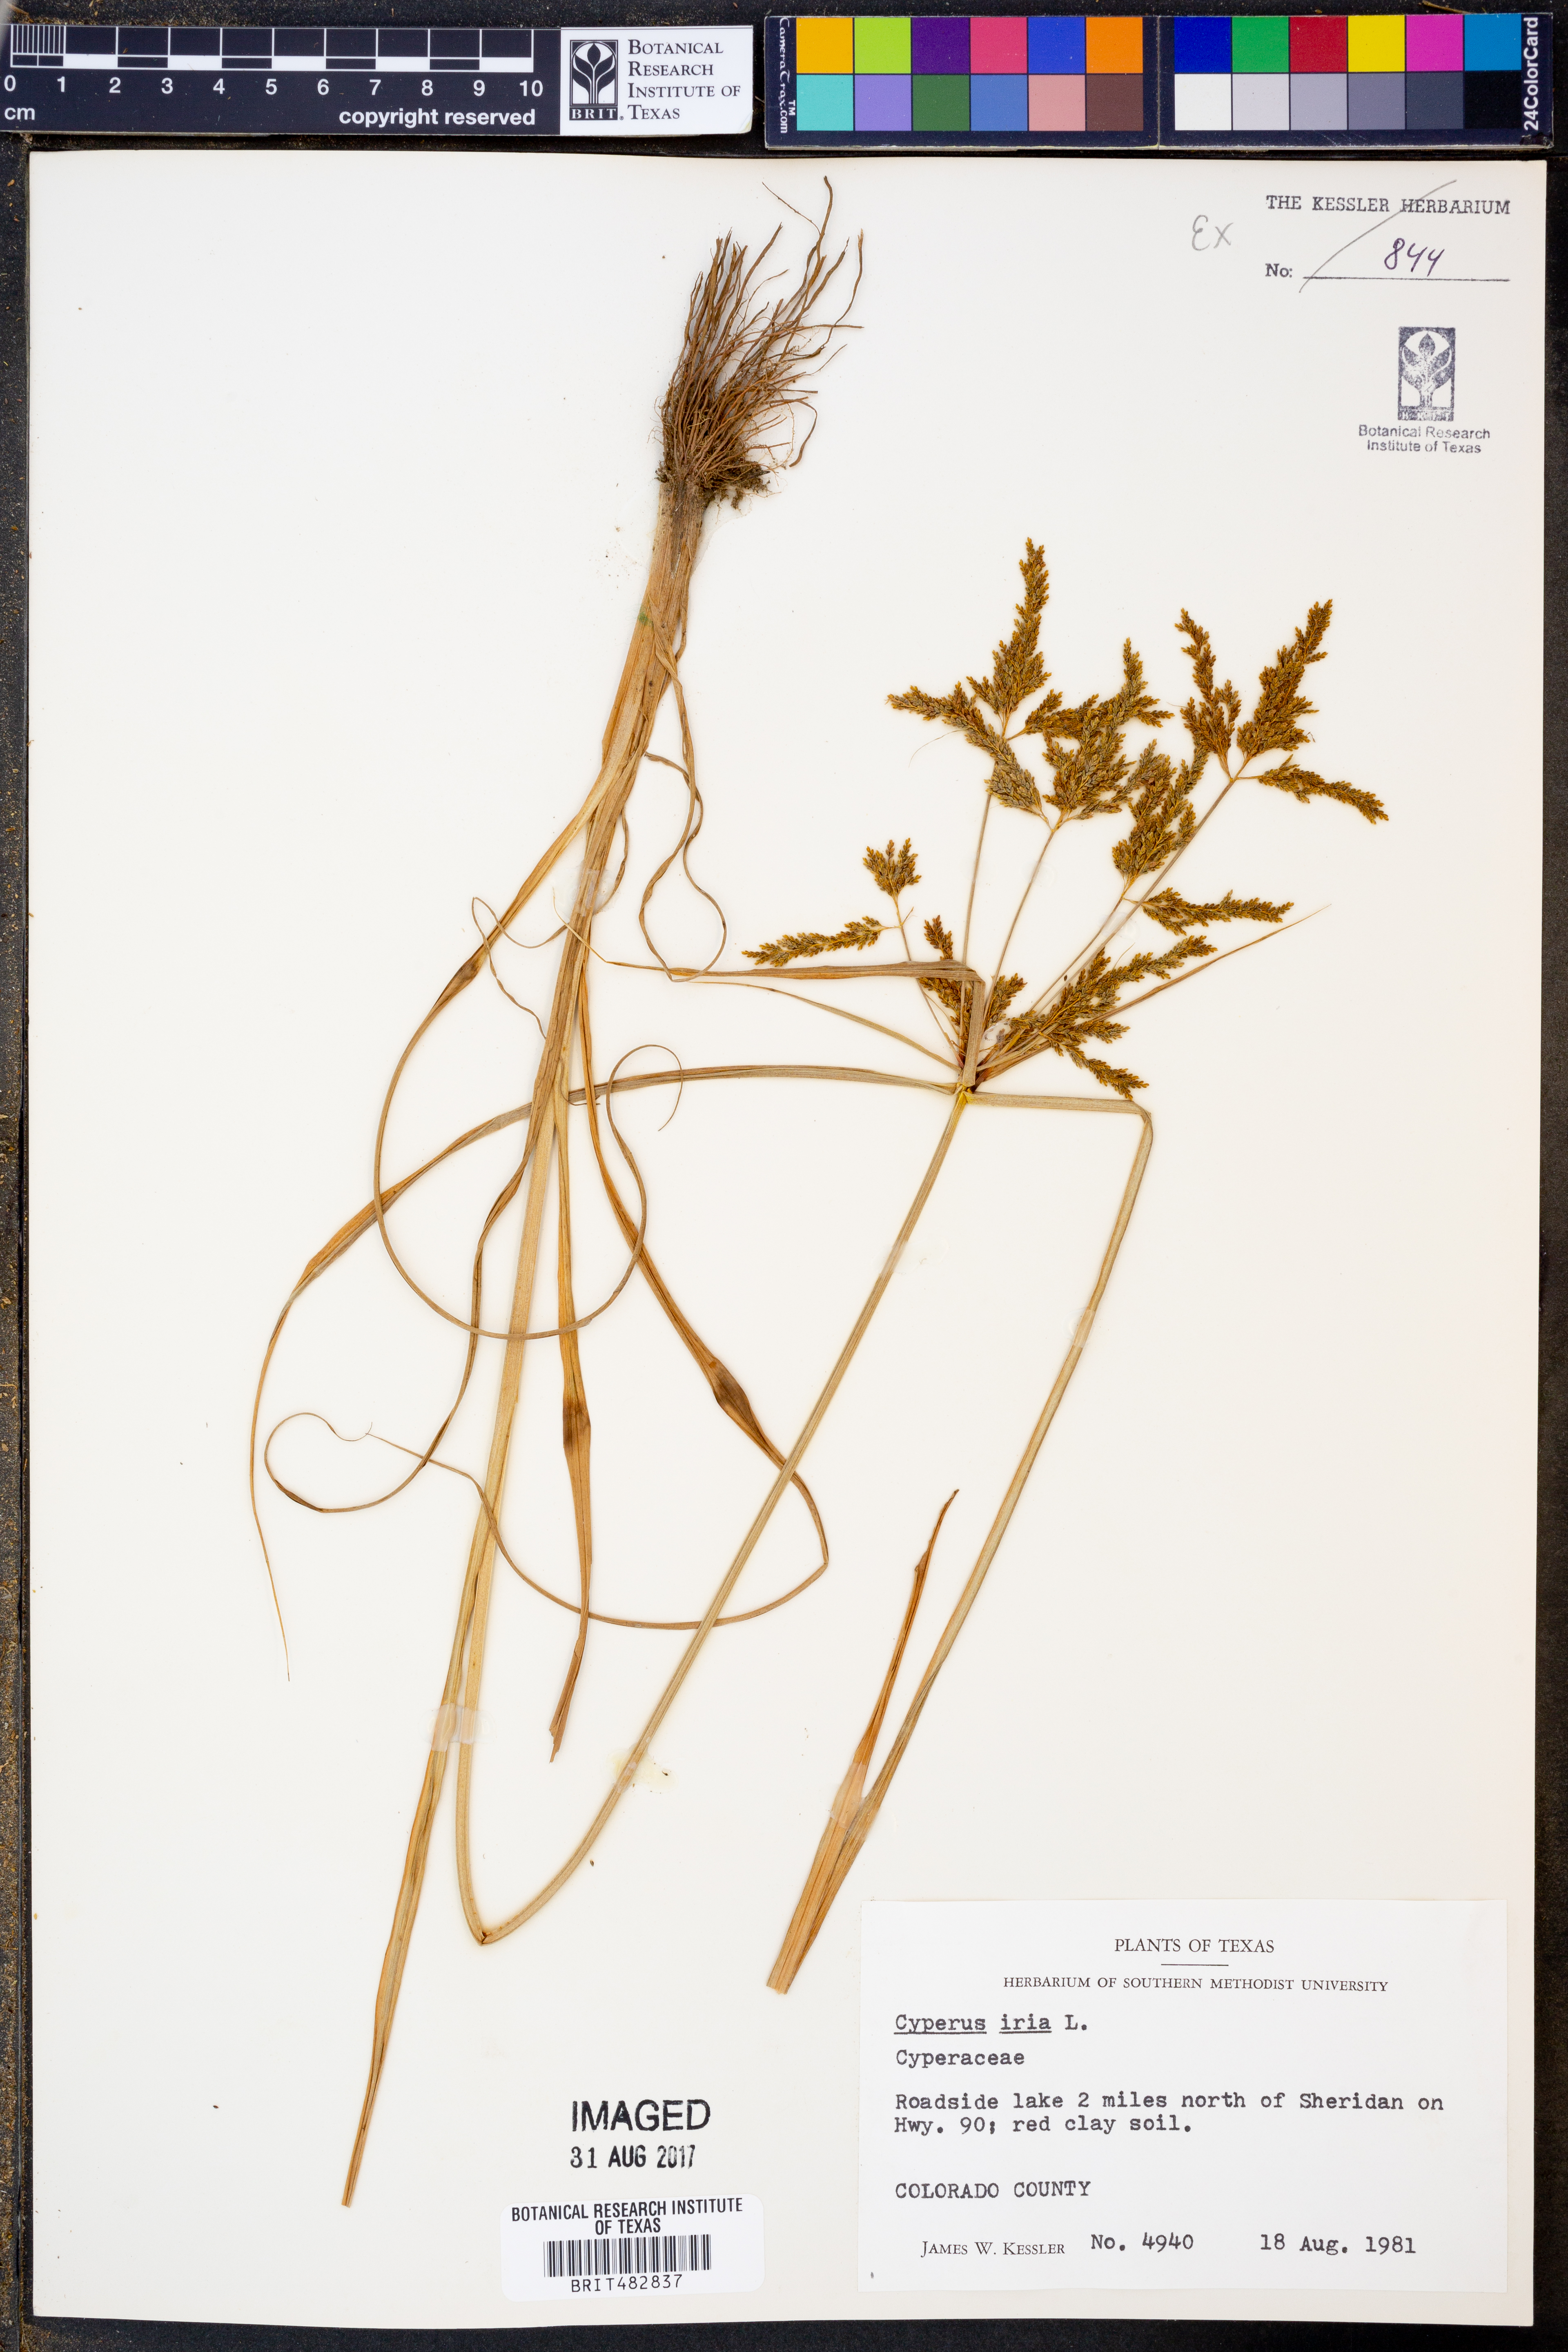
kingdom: Plantae
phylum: Tracheophyta
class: Liliopsida
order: Poales
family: Cyperaceae
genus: Cyperus
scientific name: Cyperus iria
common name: Ricefield flatsedge
